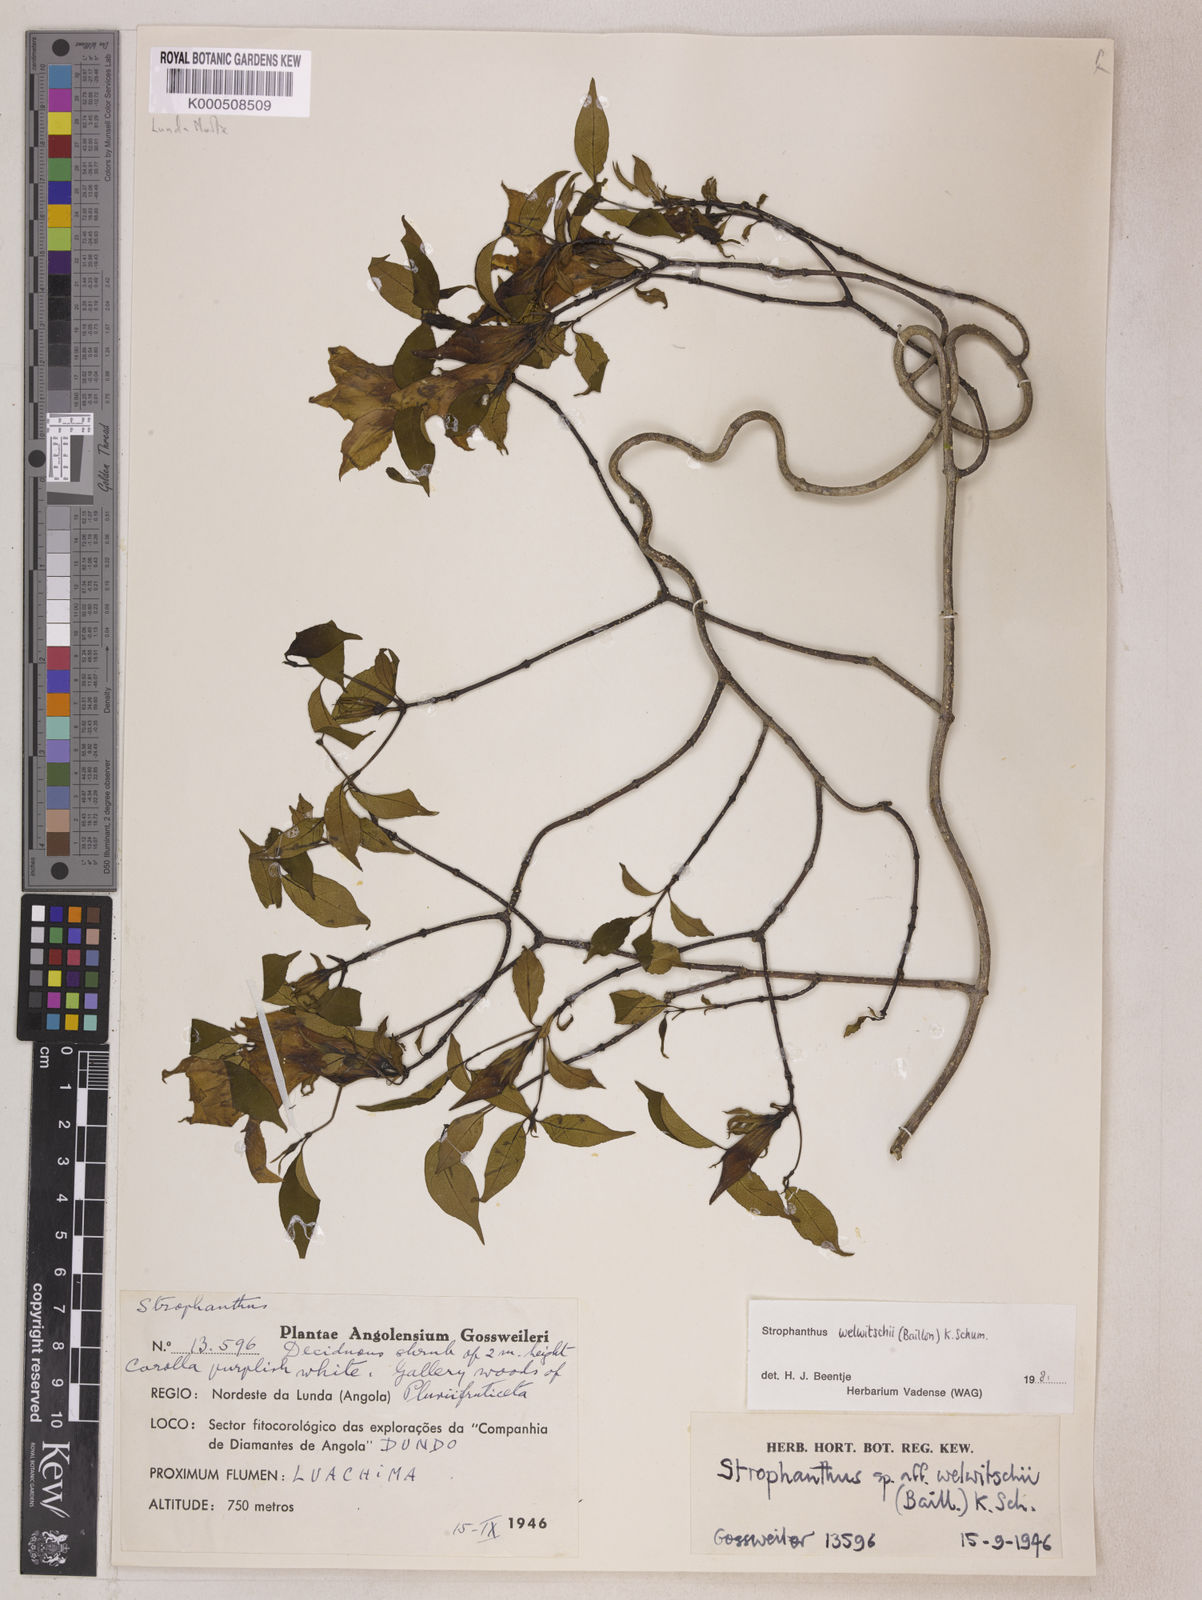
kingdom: Plantae
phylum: Tracheophyta
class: Magnoliopsida
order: Gentianales
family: Apocynaceae
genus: Strophanthus
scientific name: Strophanthus welwitschii
